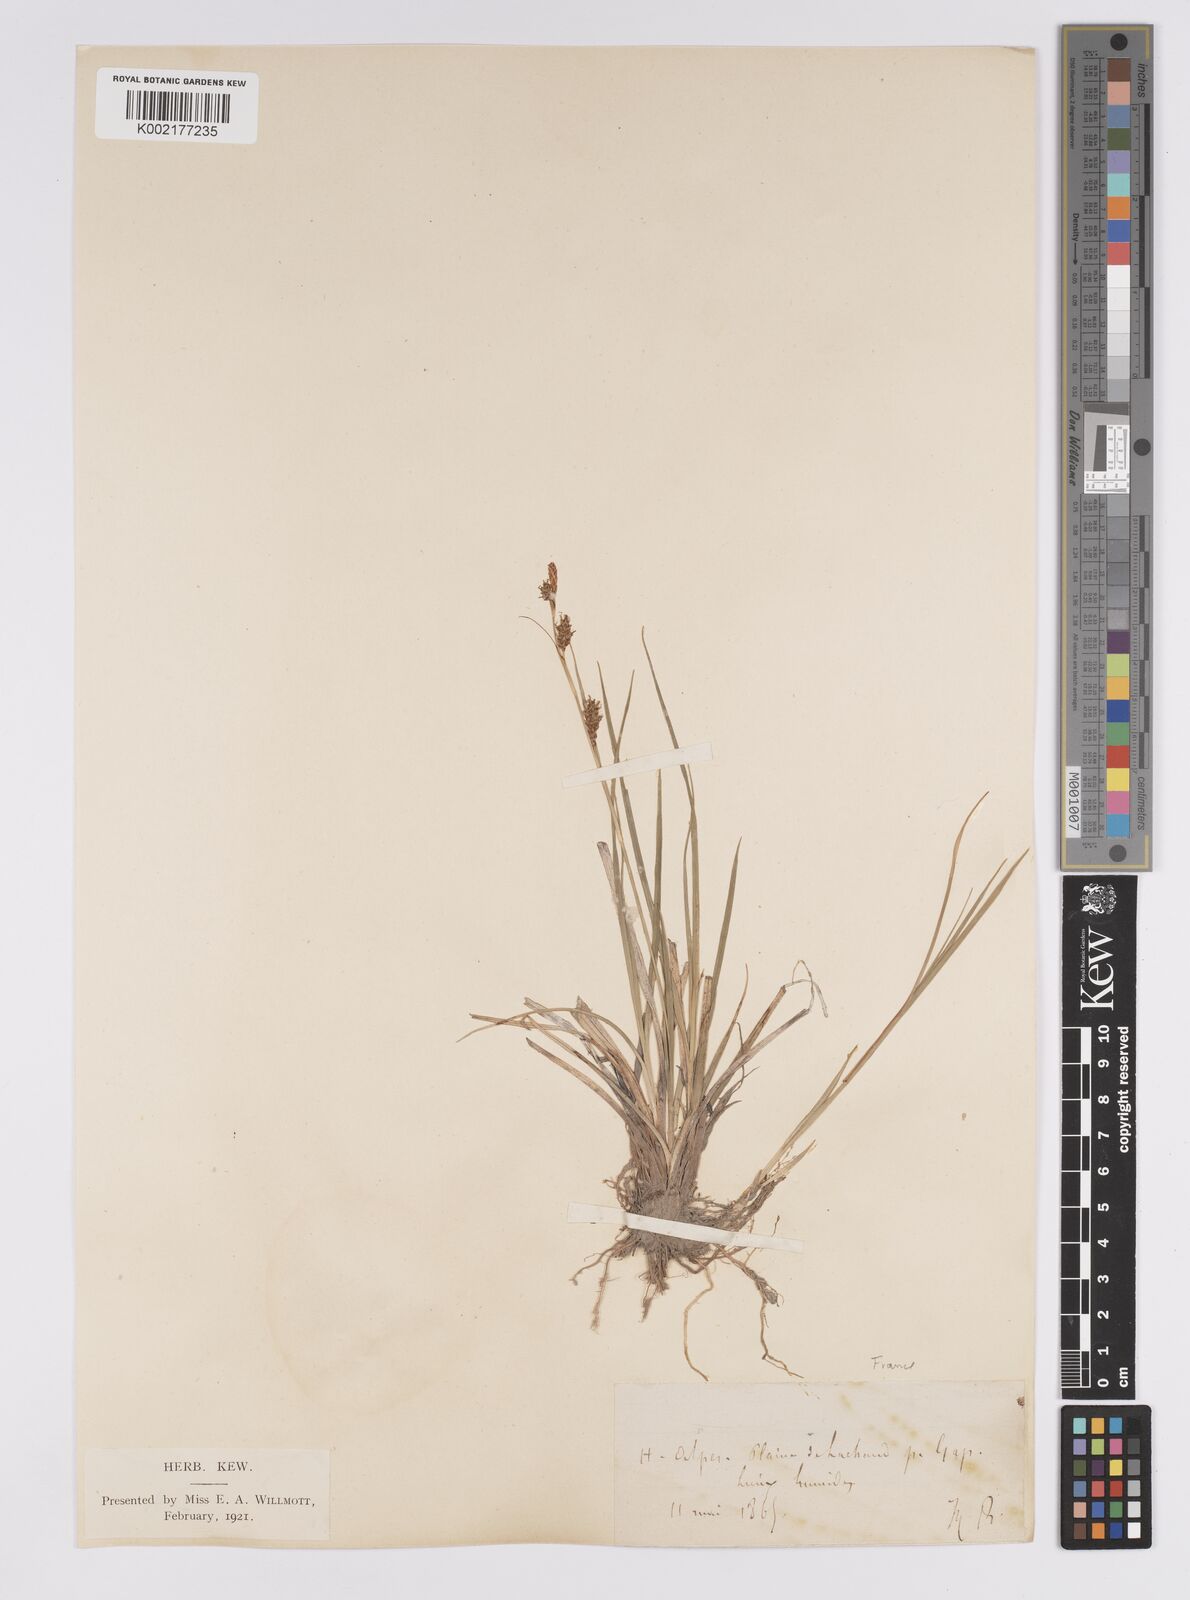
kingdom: Plantae
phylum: Tracheophyta
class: Liliopsida
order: Poales
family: Cyperaceae
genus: Carex
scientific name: Carex hostiana
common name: Tawny sedge
